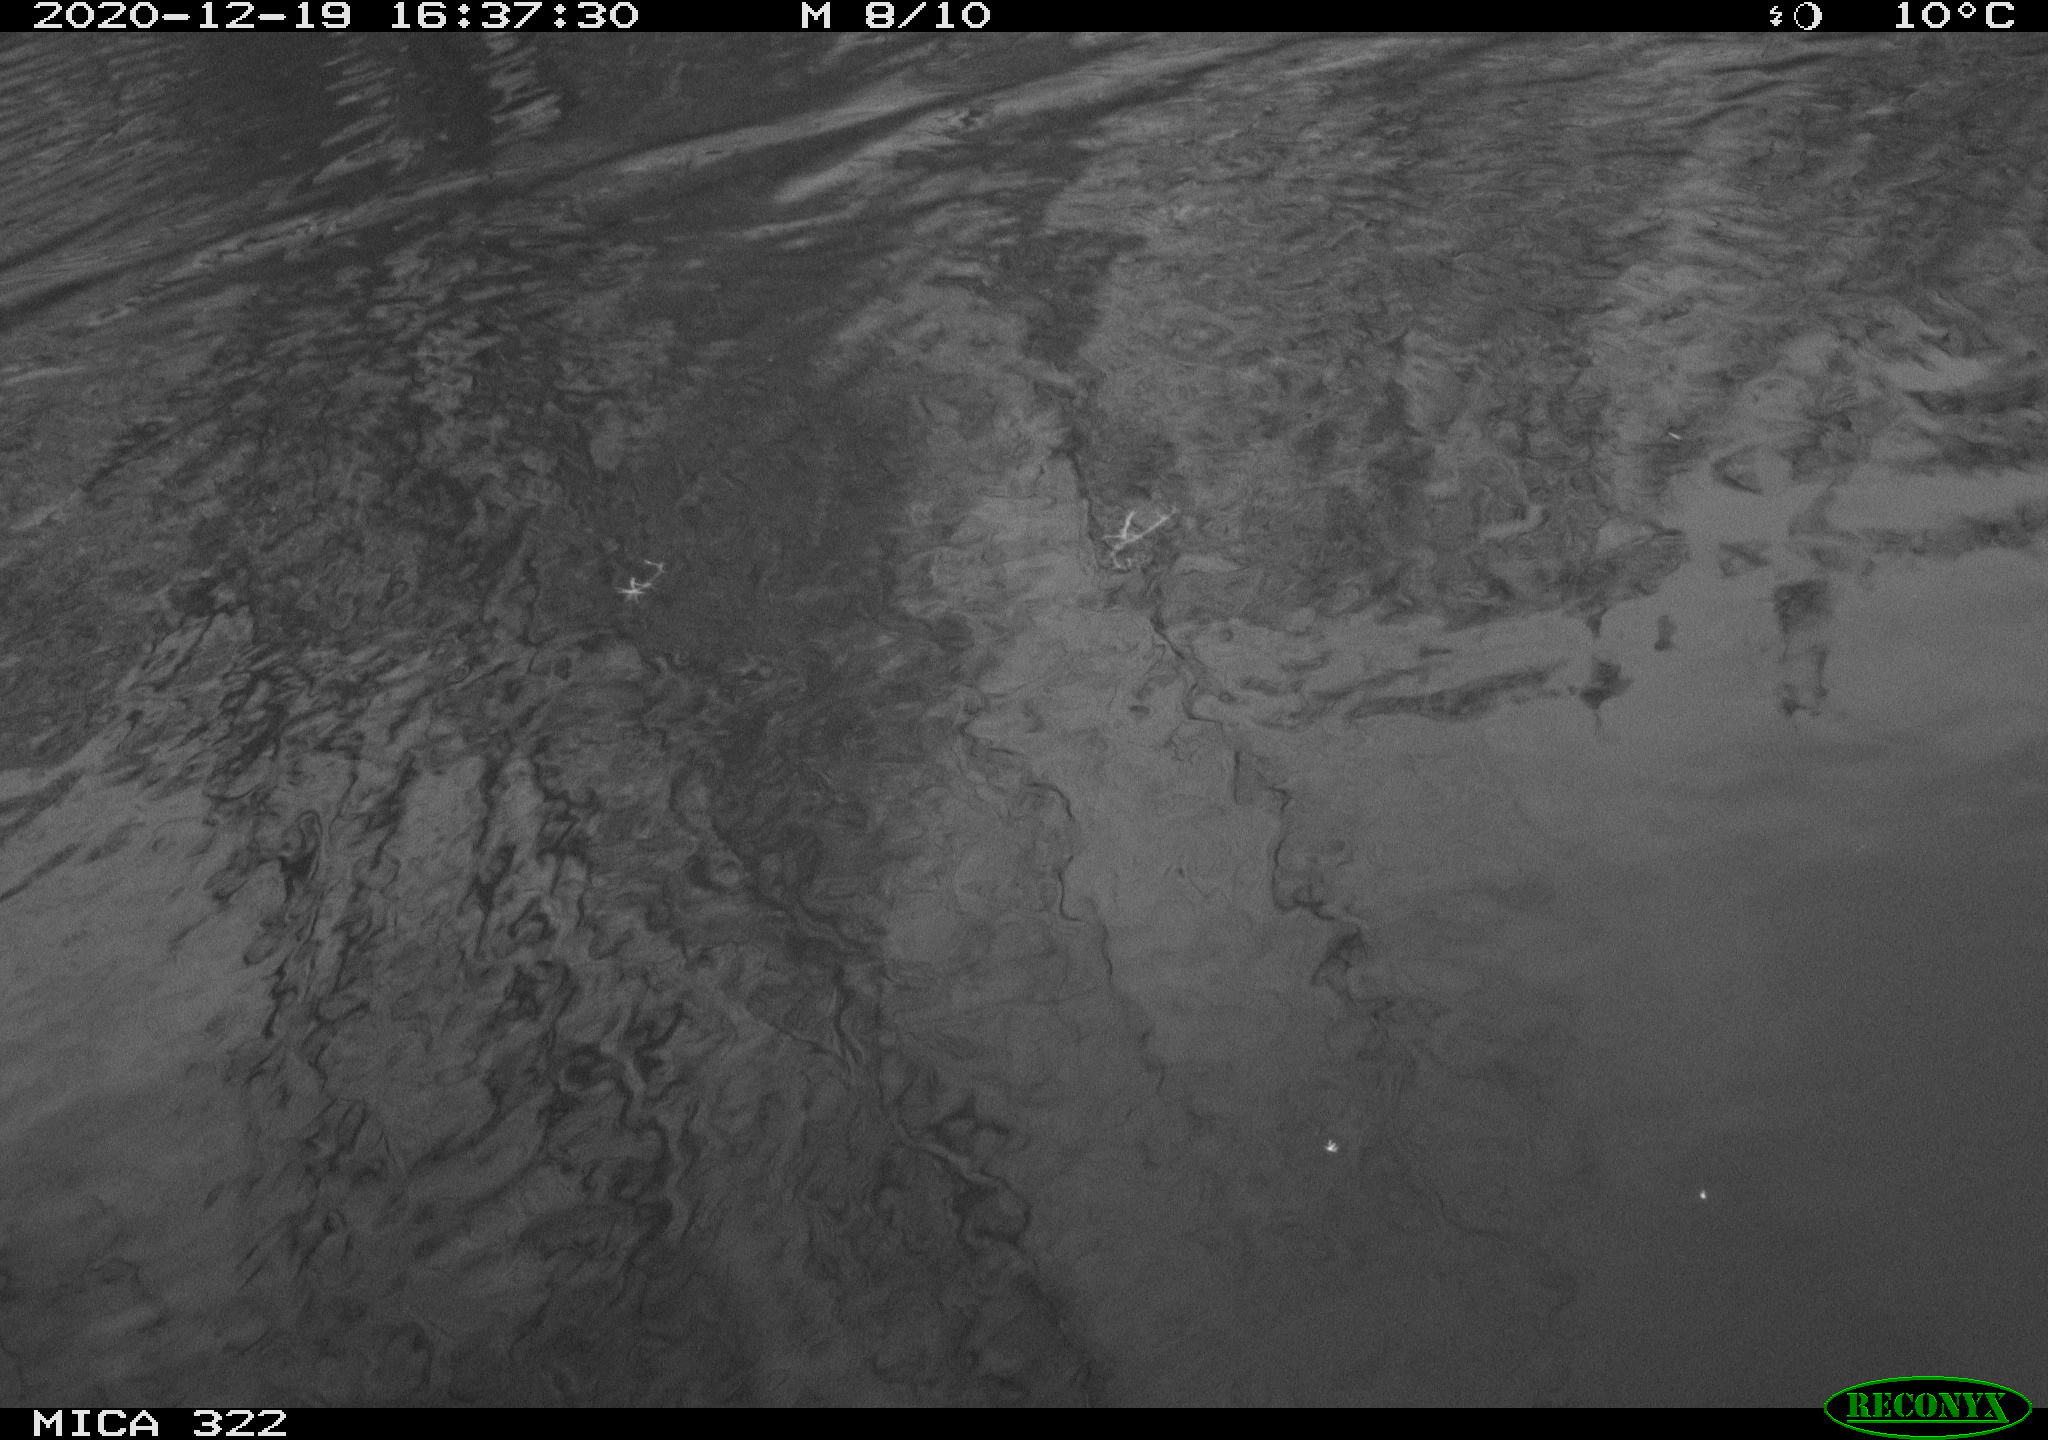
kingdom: Animalia
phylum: Chordata
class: Aves
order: Gruiformes
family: Rallidae
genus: Fulica
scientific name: Fulica atra
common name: Eurasian coot
